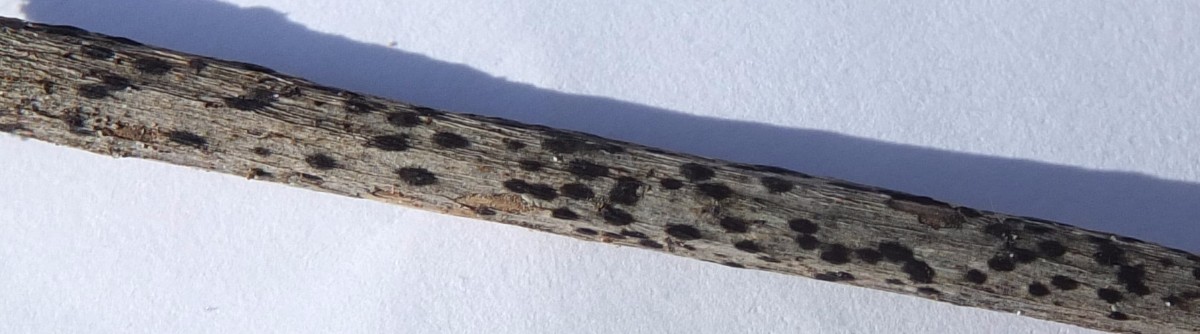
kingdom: Fungi
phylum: Ascomycota
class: Leotiomycetes
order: Helotiales
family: Ploettnerulaceae
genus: Pyrenopeziza
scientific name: Pyrenopeziza petiolaris
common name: ahorn-kerneskive
